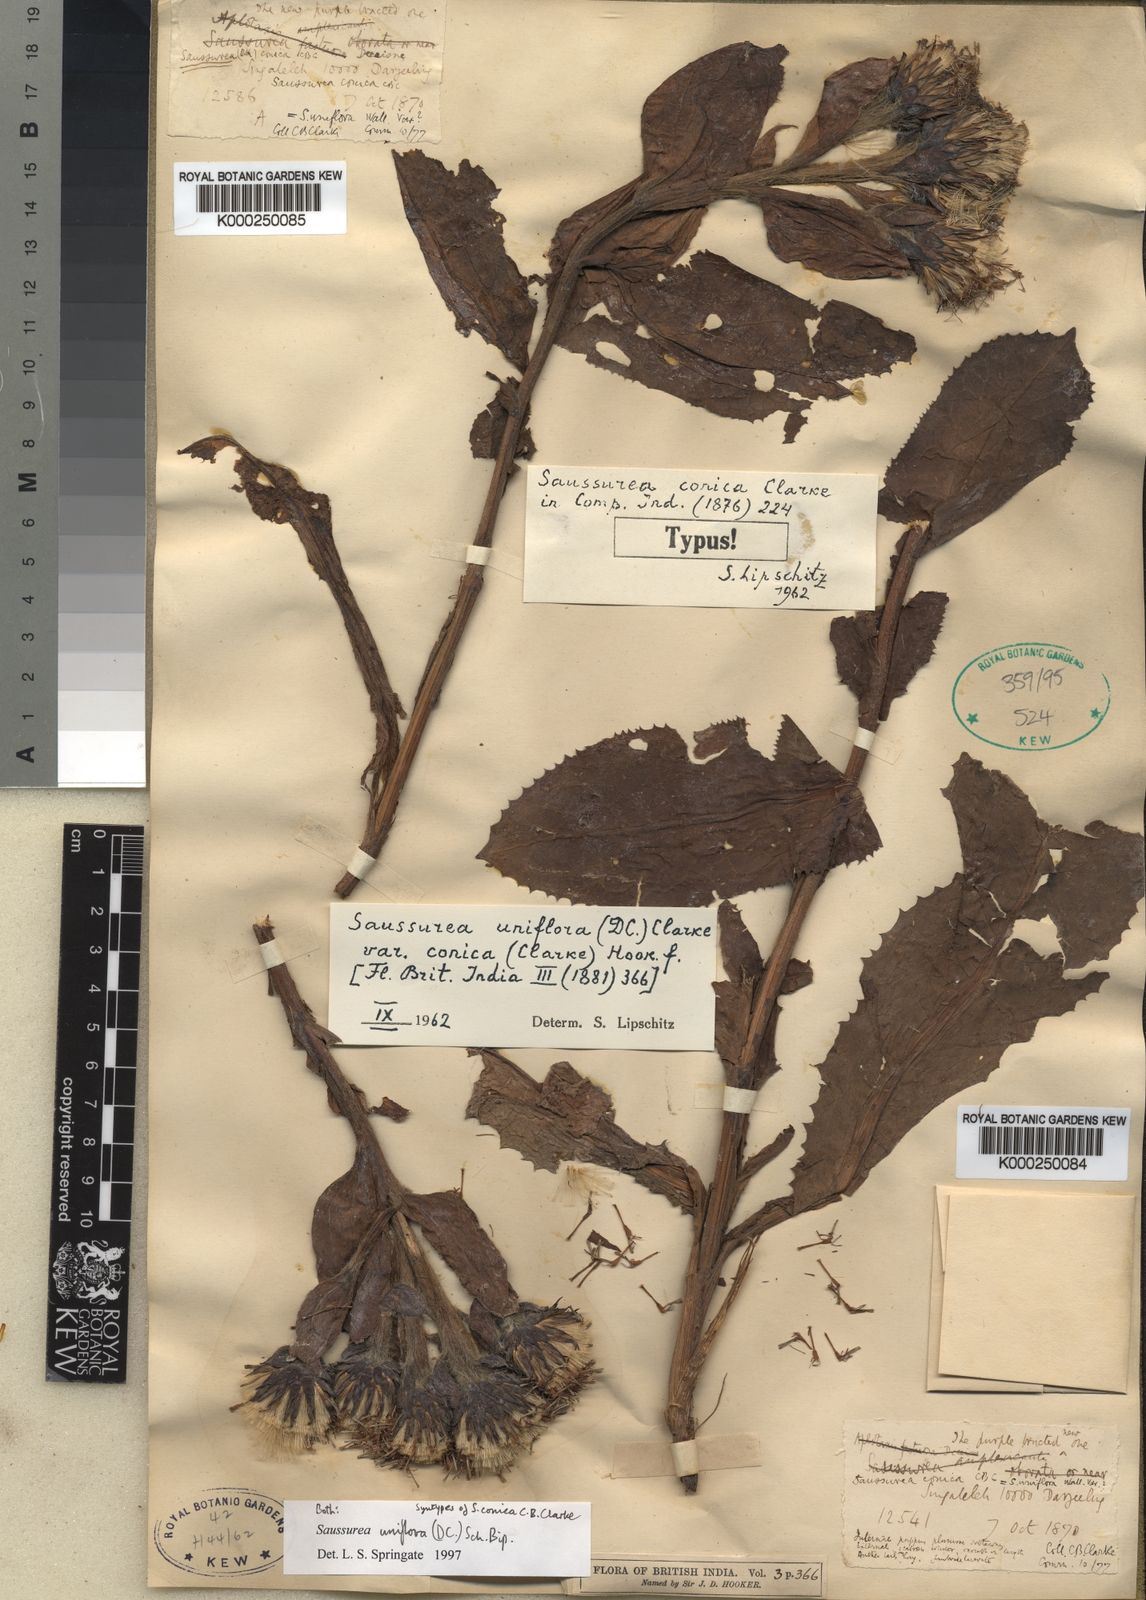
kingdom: Plantae
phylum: Tracheophyta
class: Magnoliopsida
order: Asterales
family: Asteraceae
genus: Saussurea
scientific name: Saussurea uniflora
